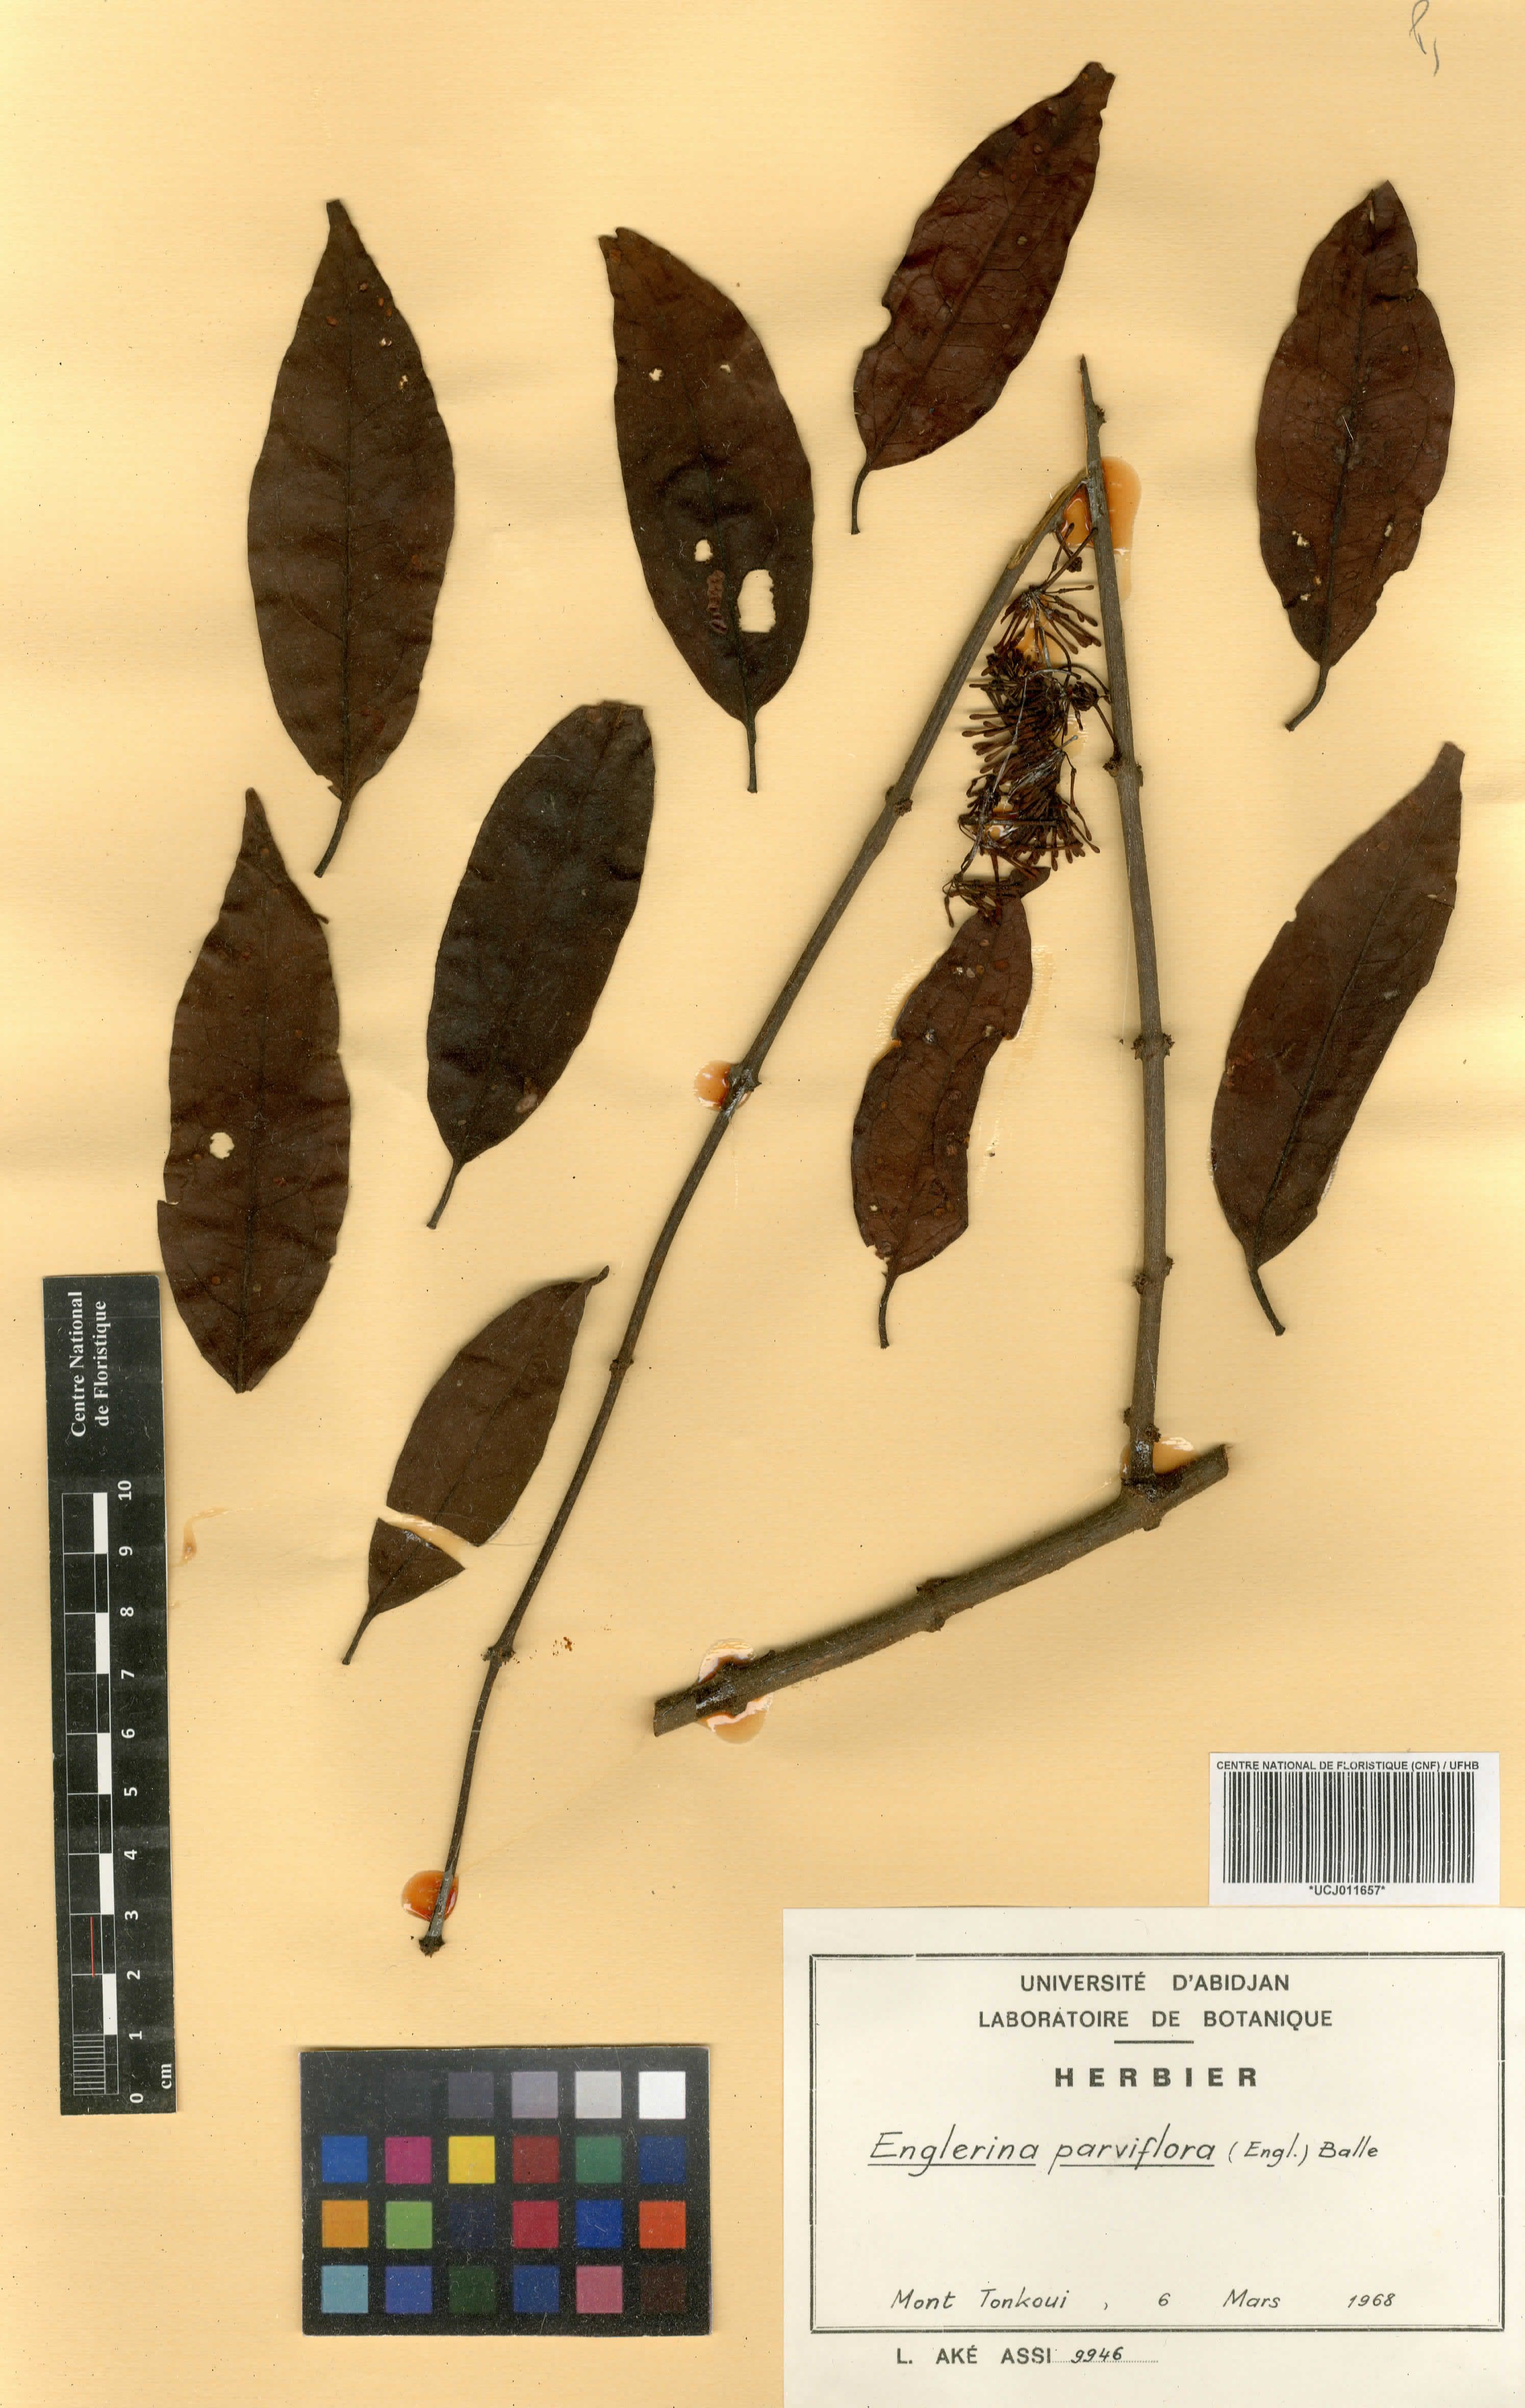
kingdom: Plantae
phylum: Tracheophyta
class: Magnoliopsida
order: Santalales
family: Loranthaceae
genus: Englerina
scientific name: Englerina parviflora
